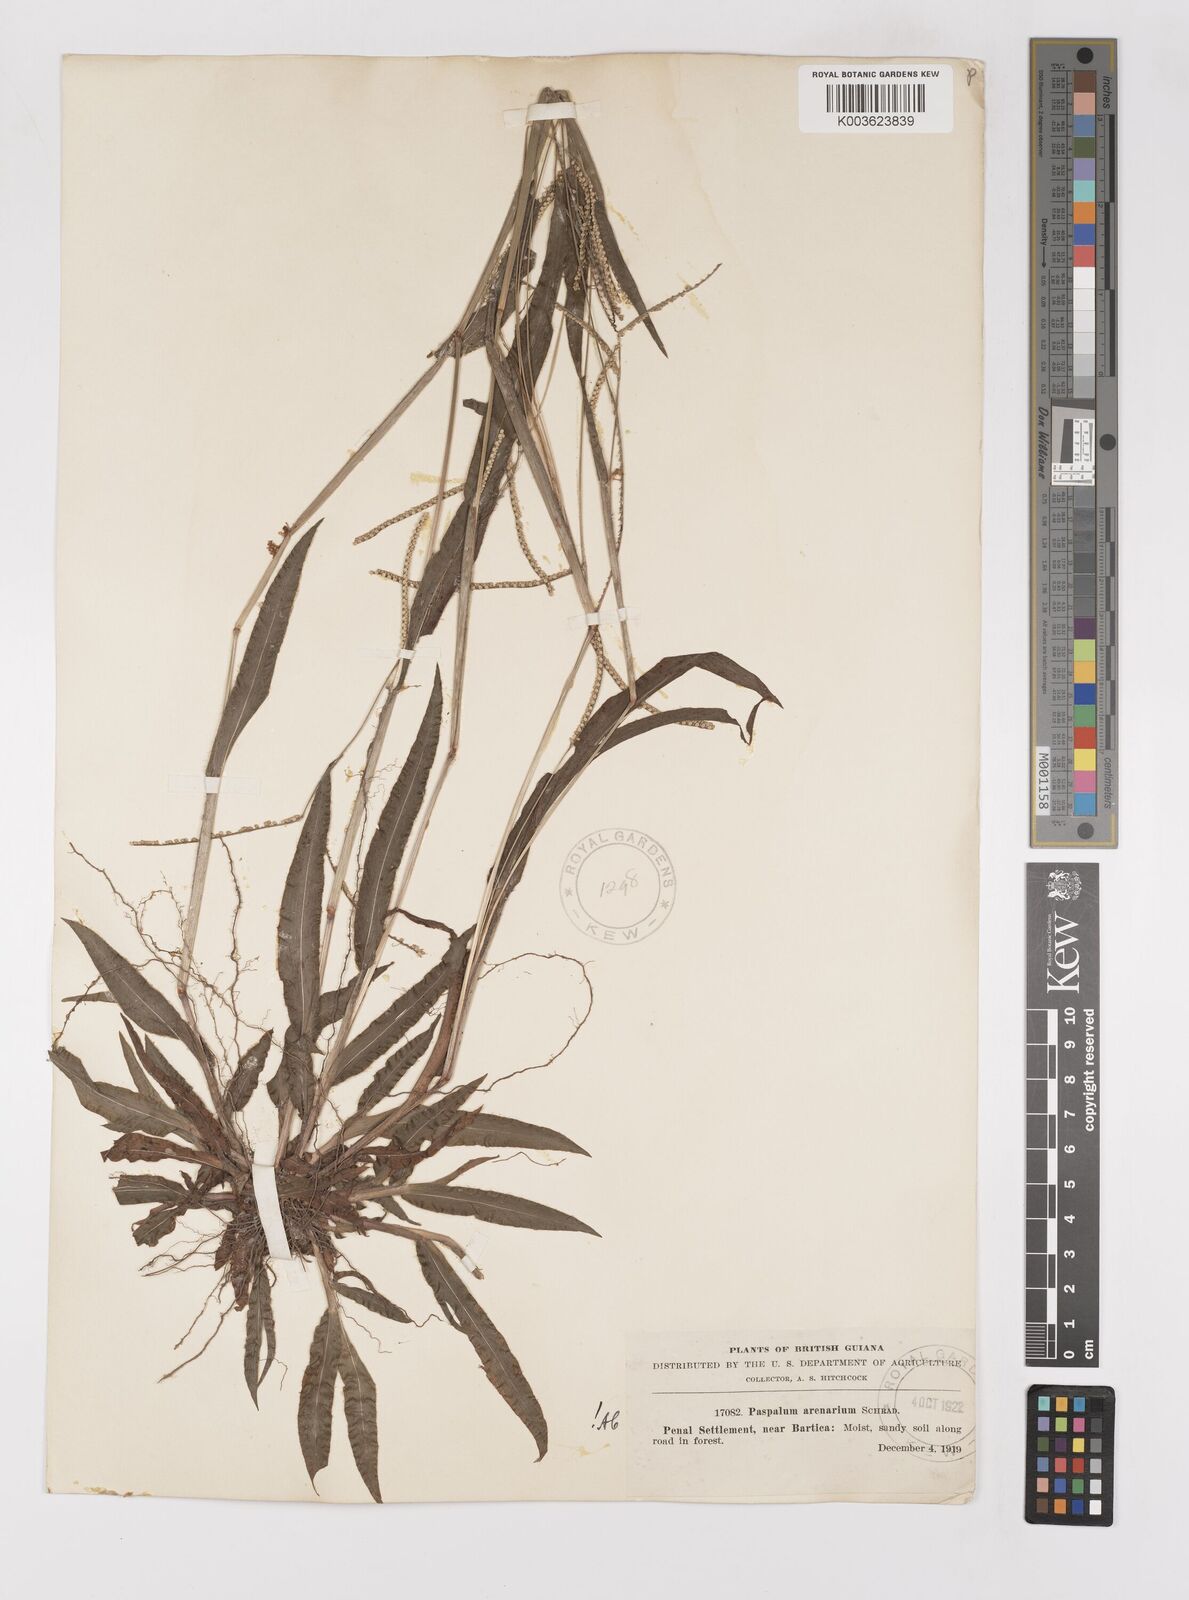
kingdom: Plantae
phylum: Tracheophyta
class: Liliopsida
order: Poales
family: Poaceae
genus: Paspalum
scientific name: Paspalum arenarium
